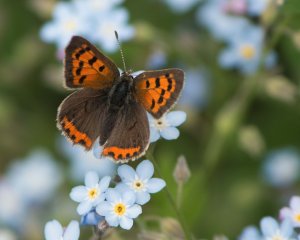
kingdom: Animalia
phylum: Arthropoda
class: Insecta
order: Lepidoptera
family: Lycaenidae
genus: Lycaena
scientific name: Lycaena phlaeas
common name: American Copper
